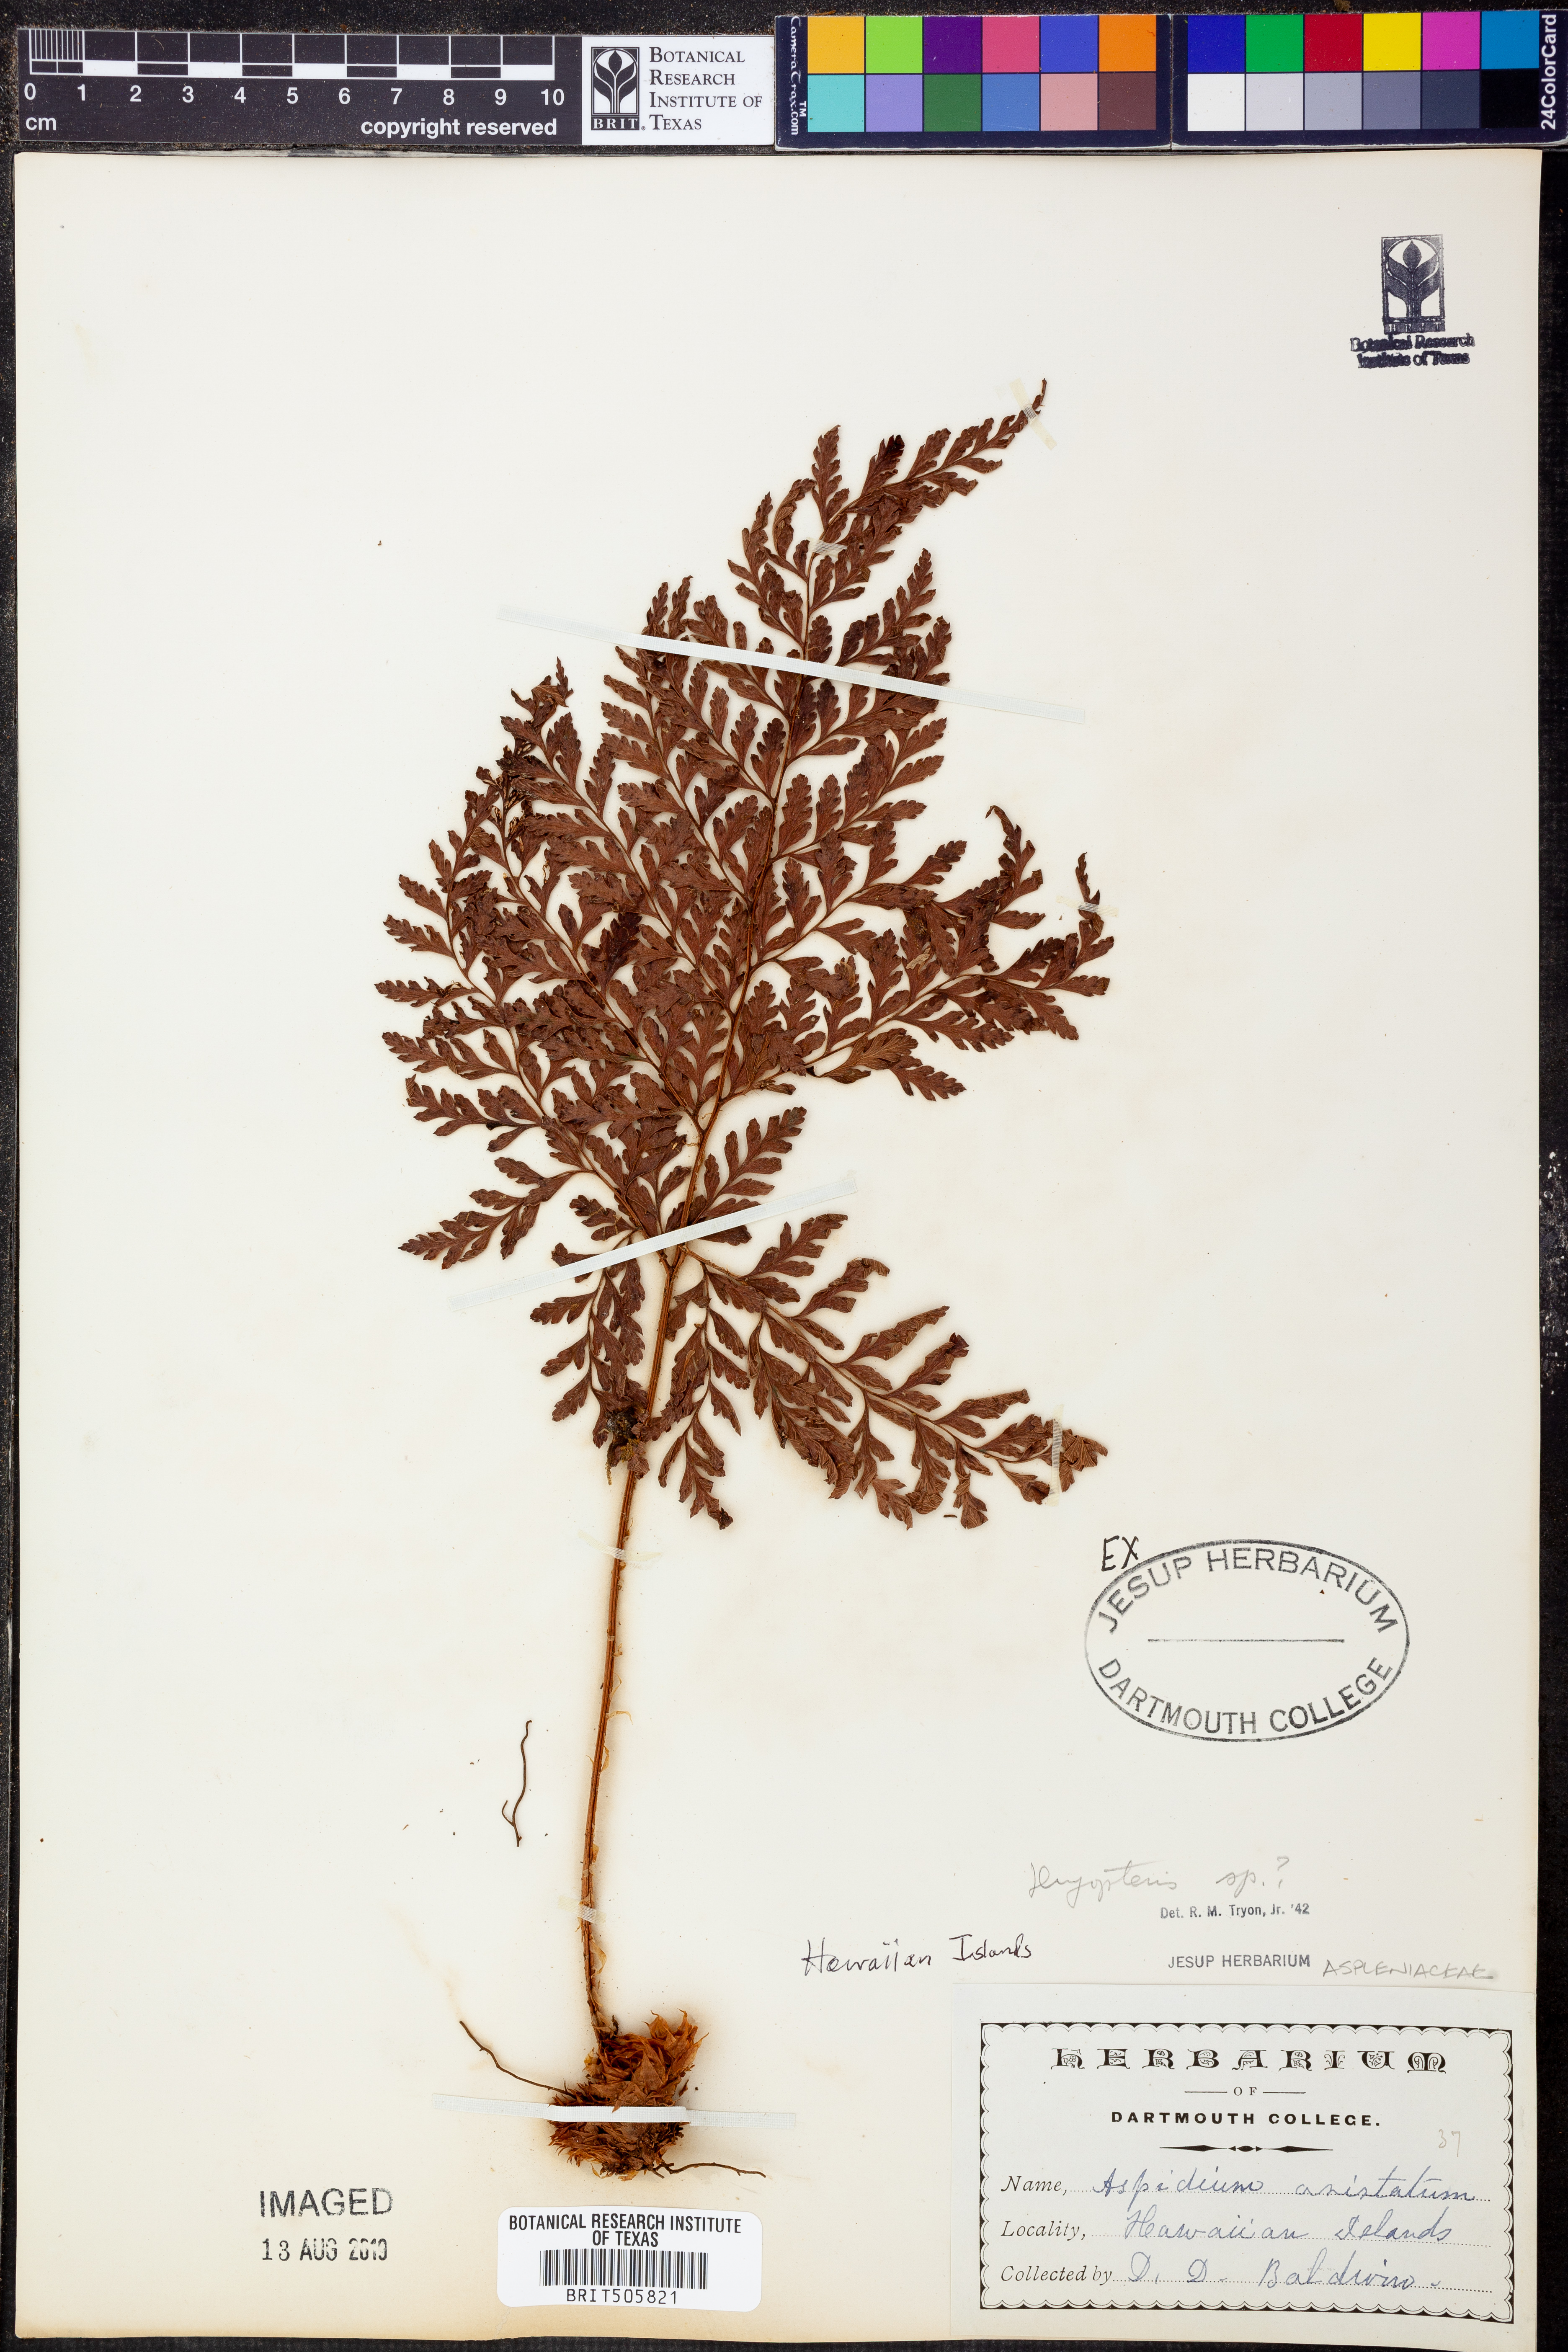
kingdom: Plantae
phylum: Tracheophyta
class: Polypodiopsida
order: Polypodiales
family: Dryopteridaceae
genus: Dryopteris
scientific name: Dryopteris
